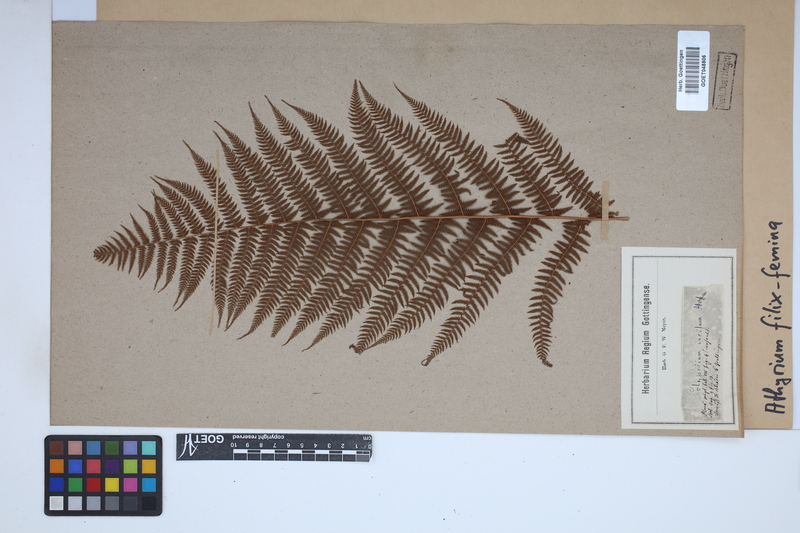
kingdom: Plantae
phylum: Tracheophyta
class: Polypodiopsida
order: Polypodiales
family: Athyriaceae
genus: Athyrium
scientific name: Athyrium filix-femina
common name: Lady fern
